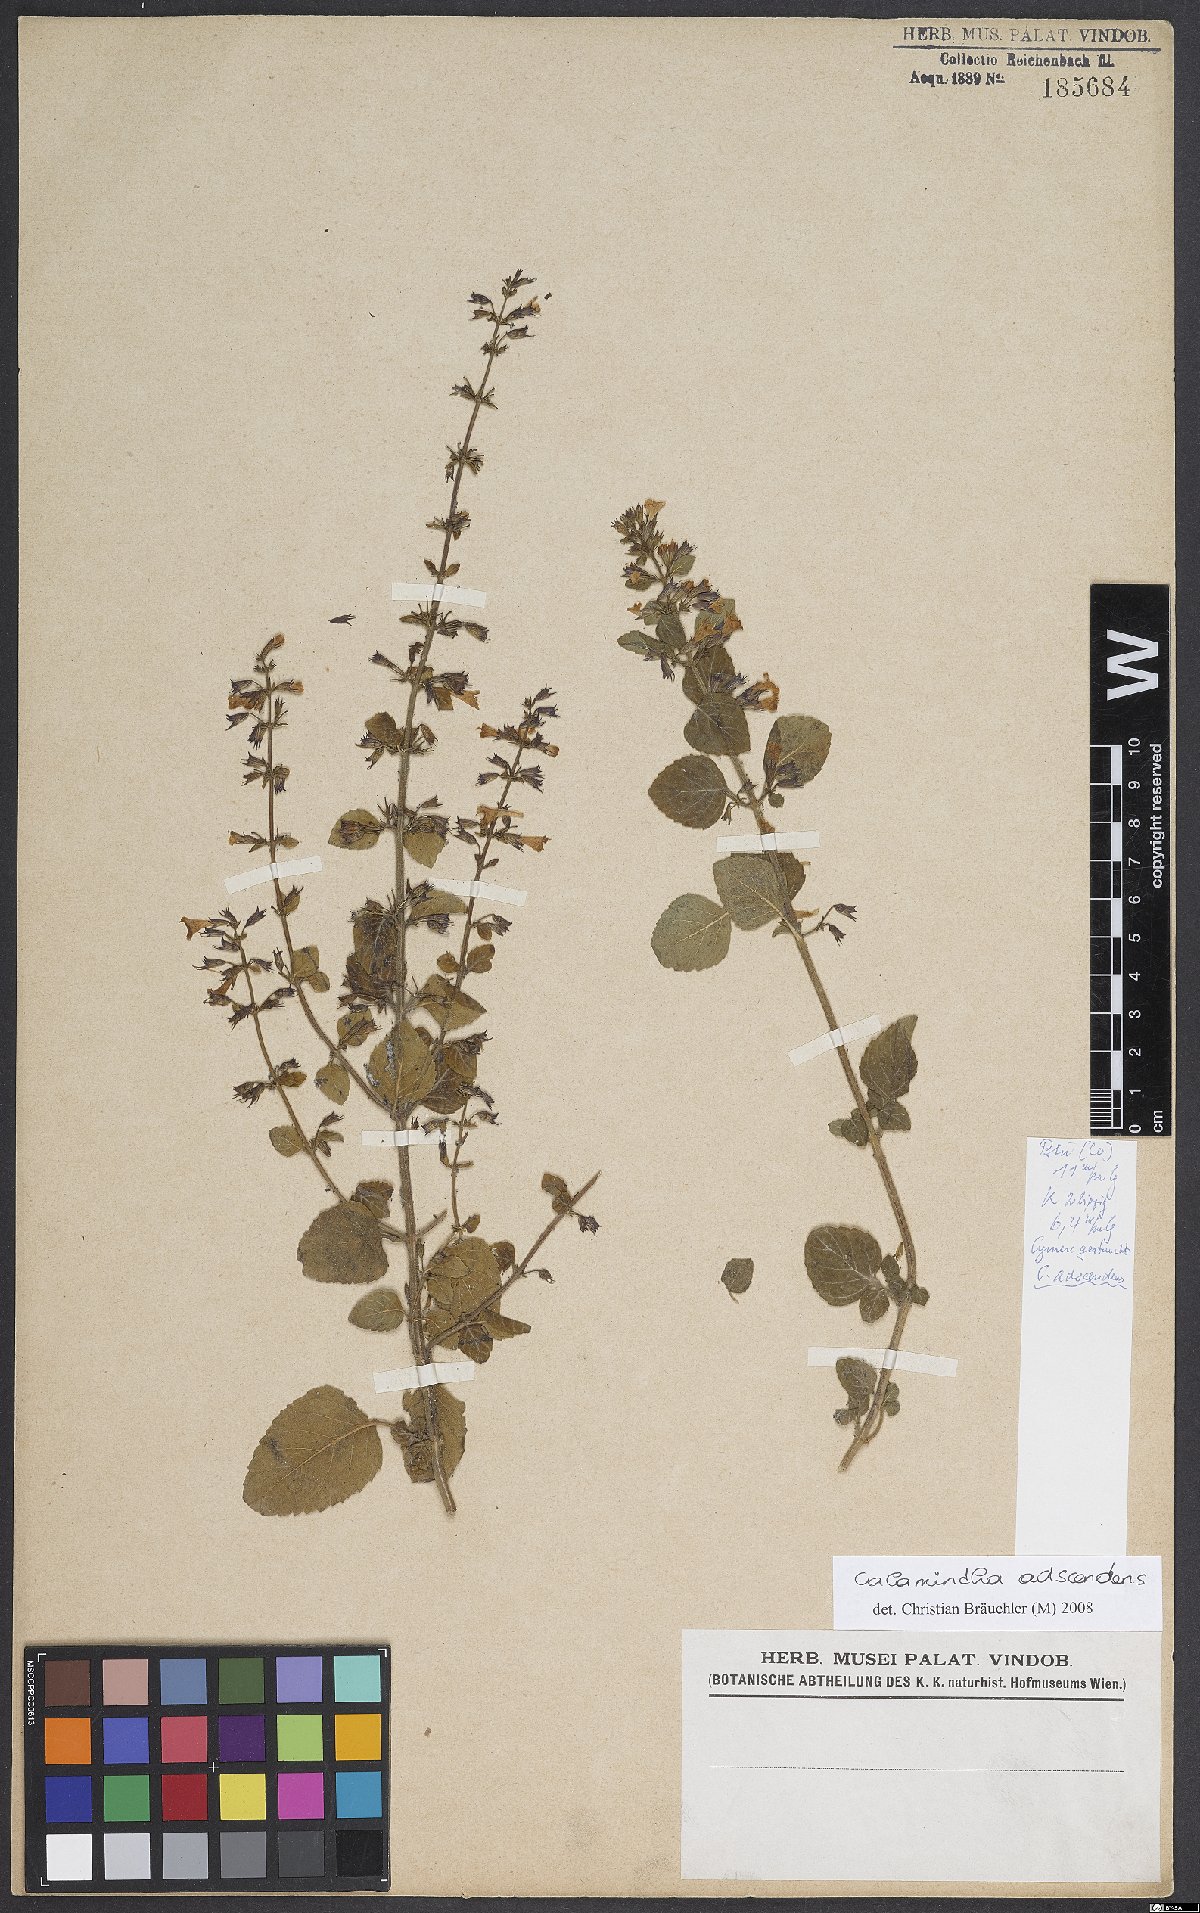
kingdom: Plantae
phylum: Tracheophyta
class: Magnoliopsida
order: Lamiales
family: Lamiaceae
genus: Clinopodium
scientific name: Clinopodium menthifolium
